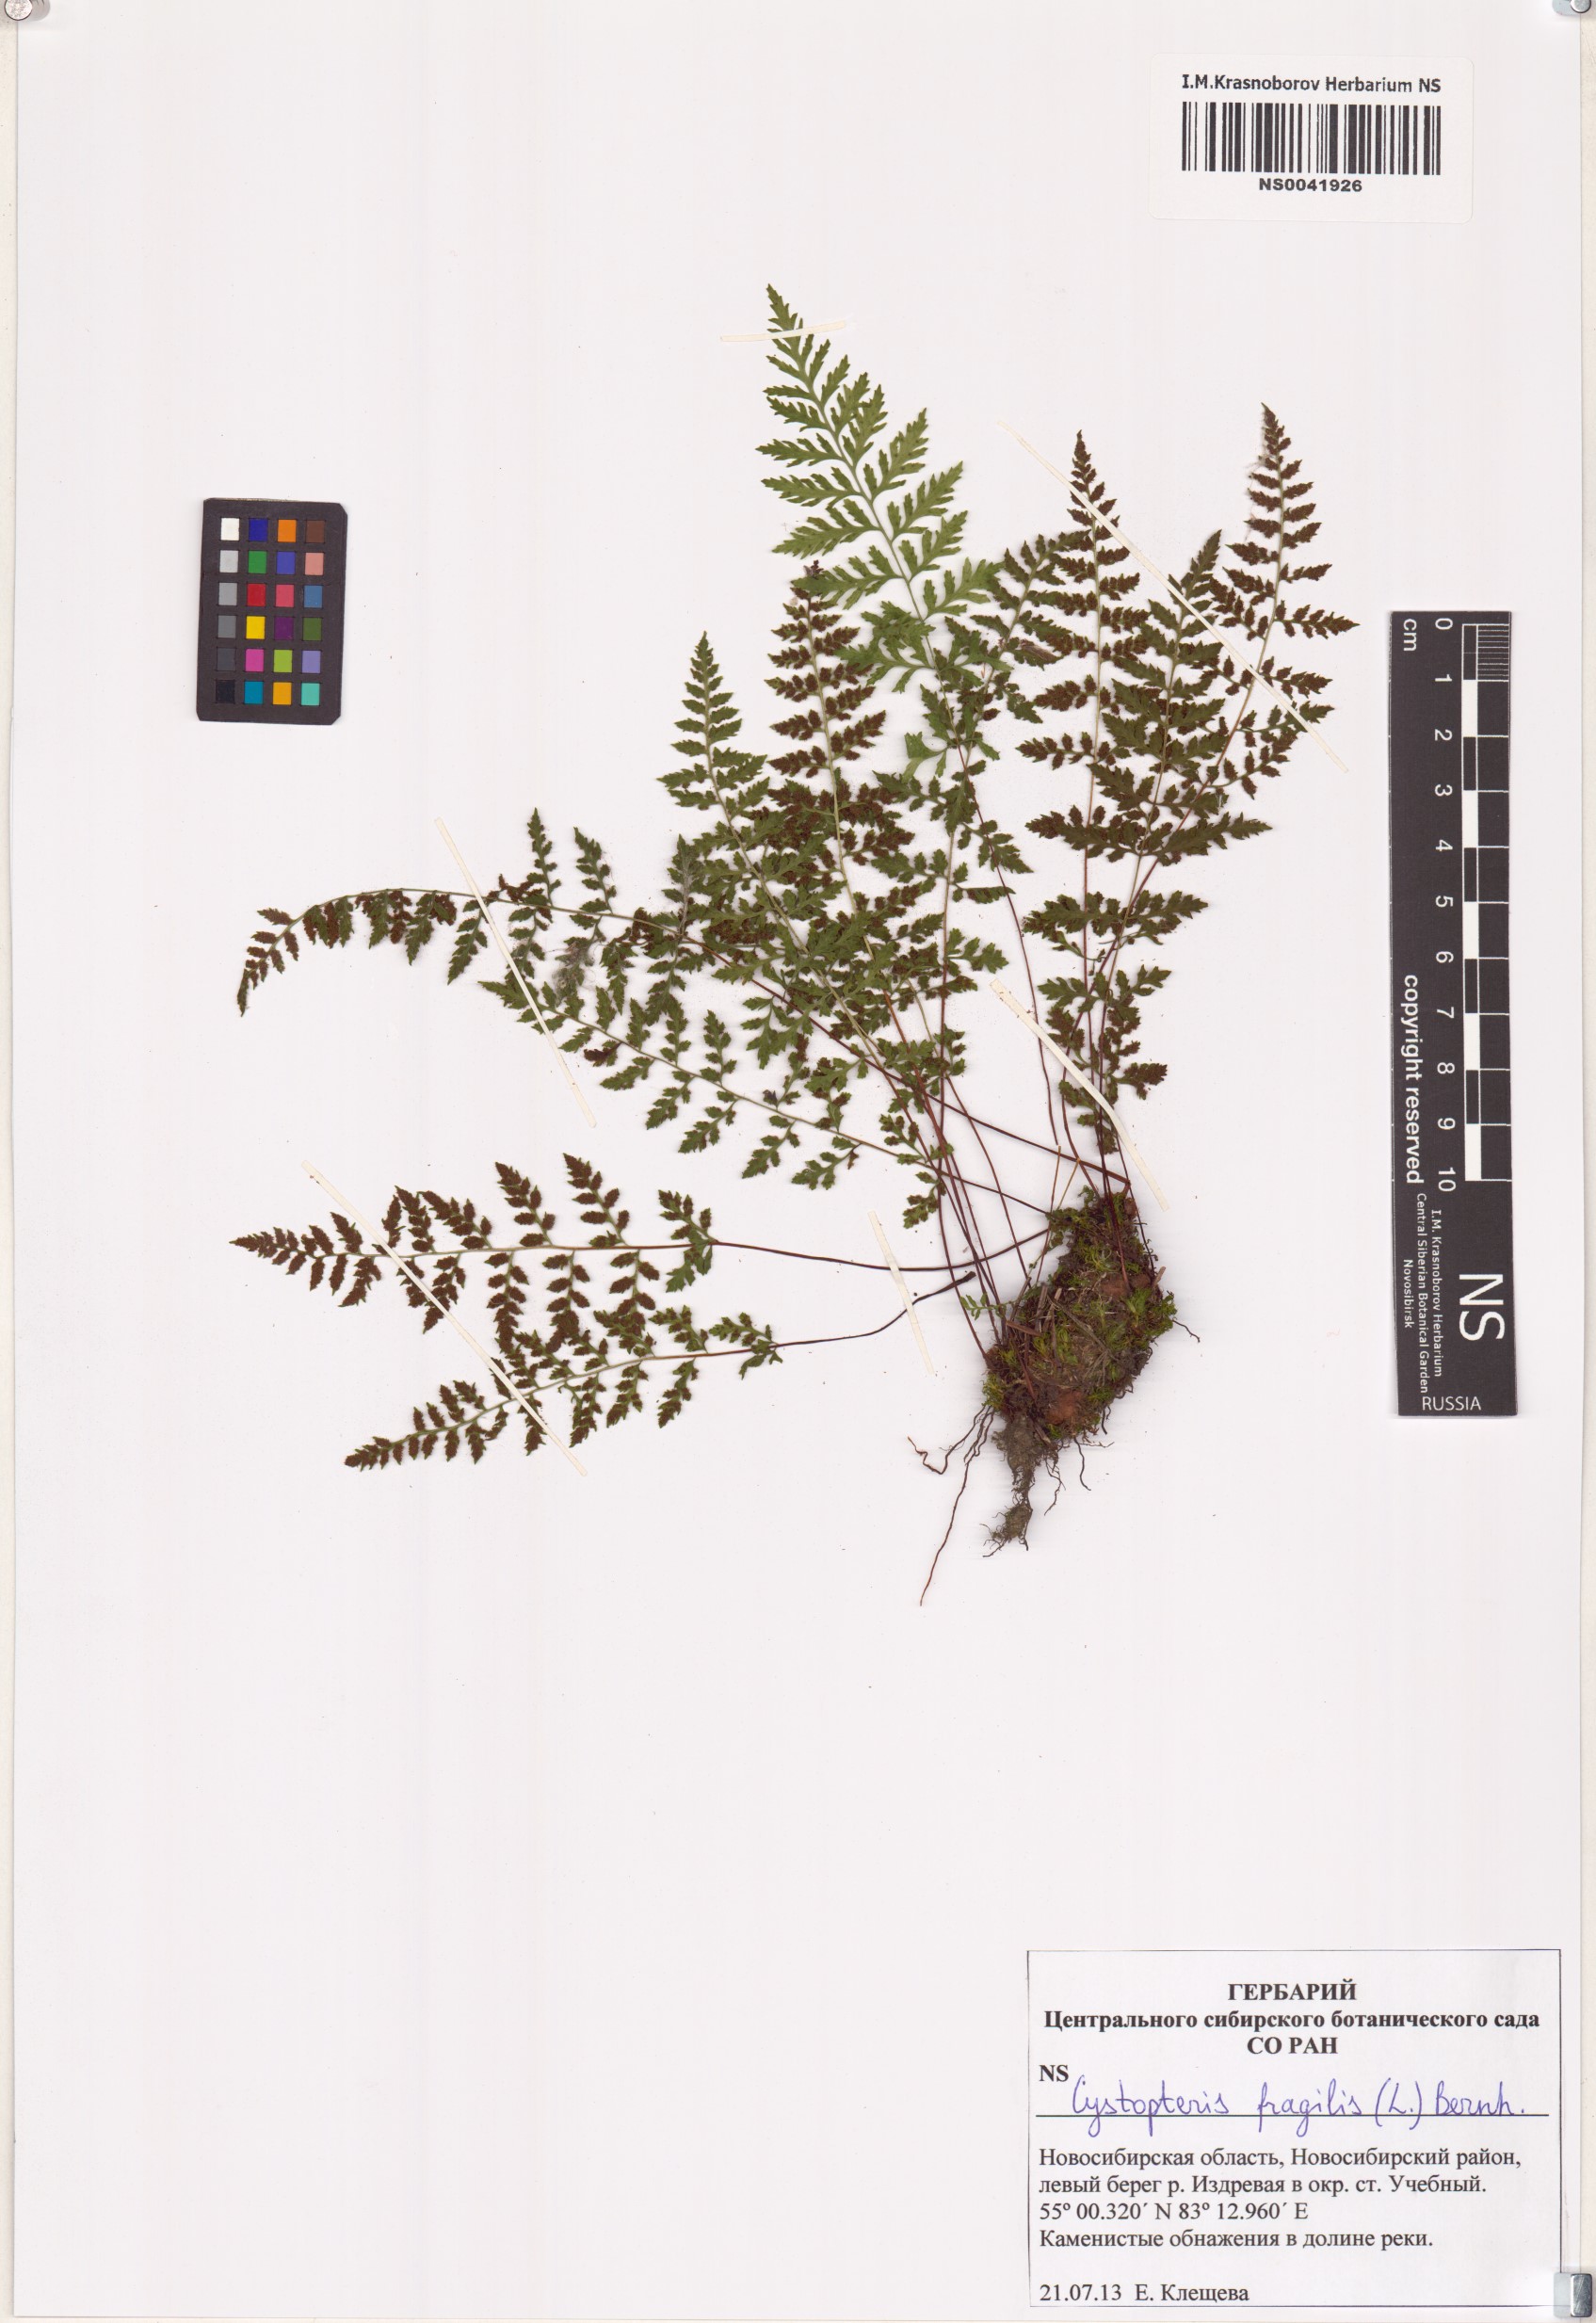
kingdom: Plantae
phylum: Tracheophyta
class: Polypodiopsida
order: Polypodiales
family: Cystopteridaceae
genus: Cystopteris
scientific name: Cystopteris fragilis
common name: Brittle bladder fern
